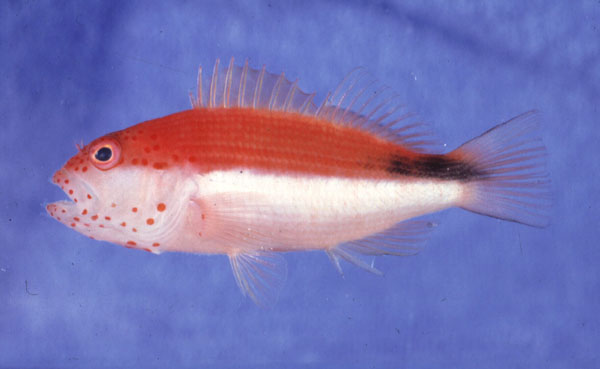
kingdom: Animalia
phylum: Chordata
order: Perciformes
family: Cirrhitidae
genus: Paracirrhites
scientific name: Paracirrhites forsteri
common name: Freckled hawkfish
